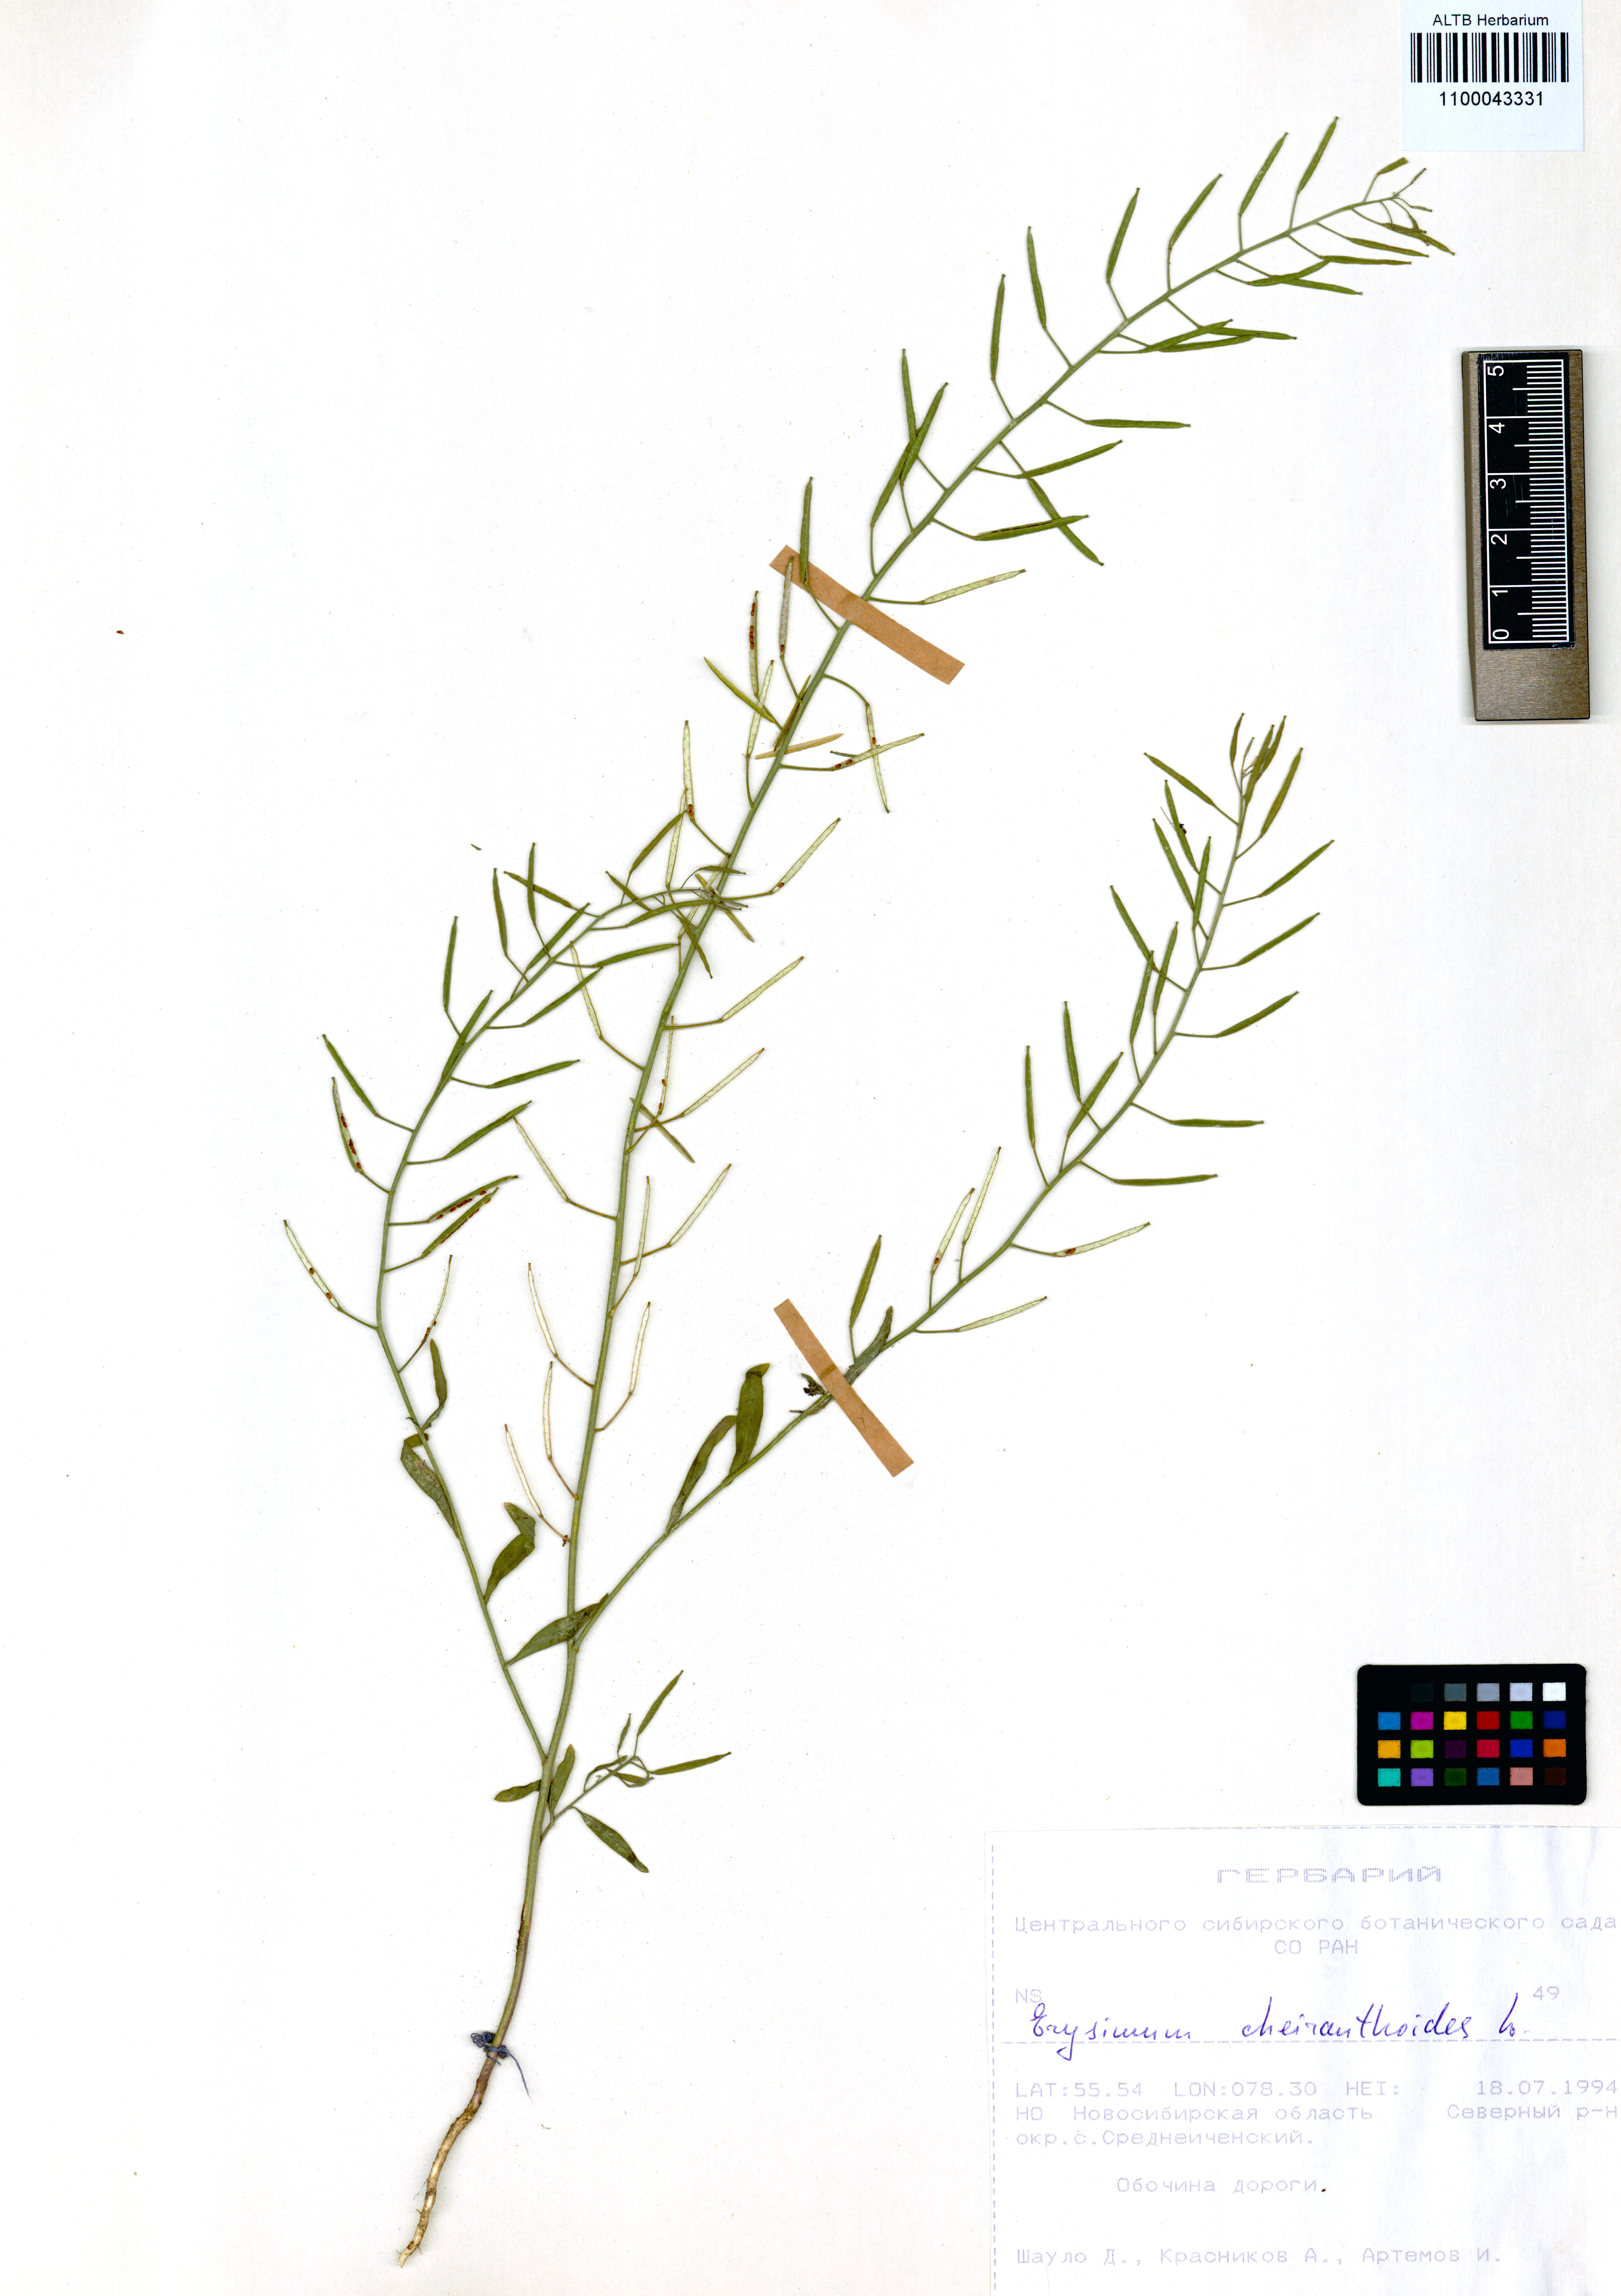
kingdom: Plantae
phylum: Tracheophyta
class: Magnoliopsida
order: Brassicales
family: Brassicaceae
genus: Erysimum
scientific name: Erysimum cheiranthoides
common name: Treacle mustard
